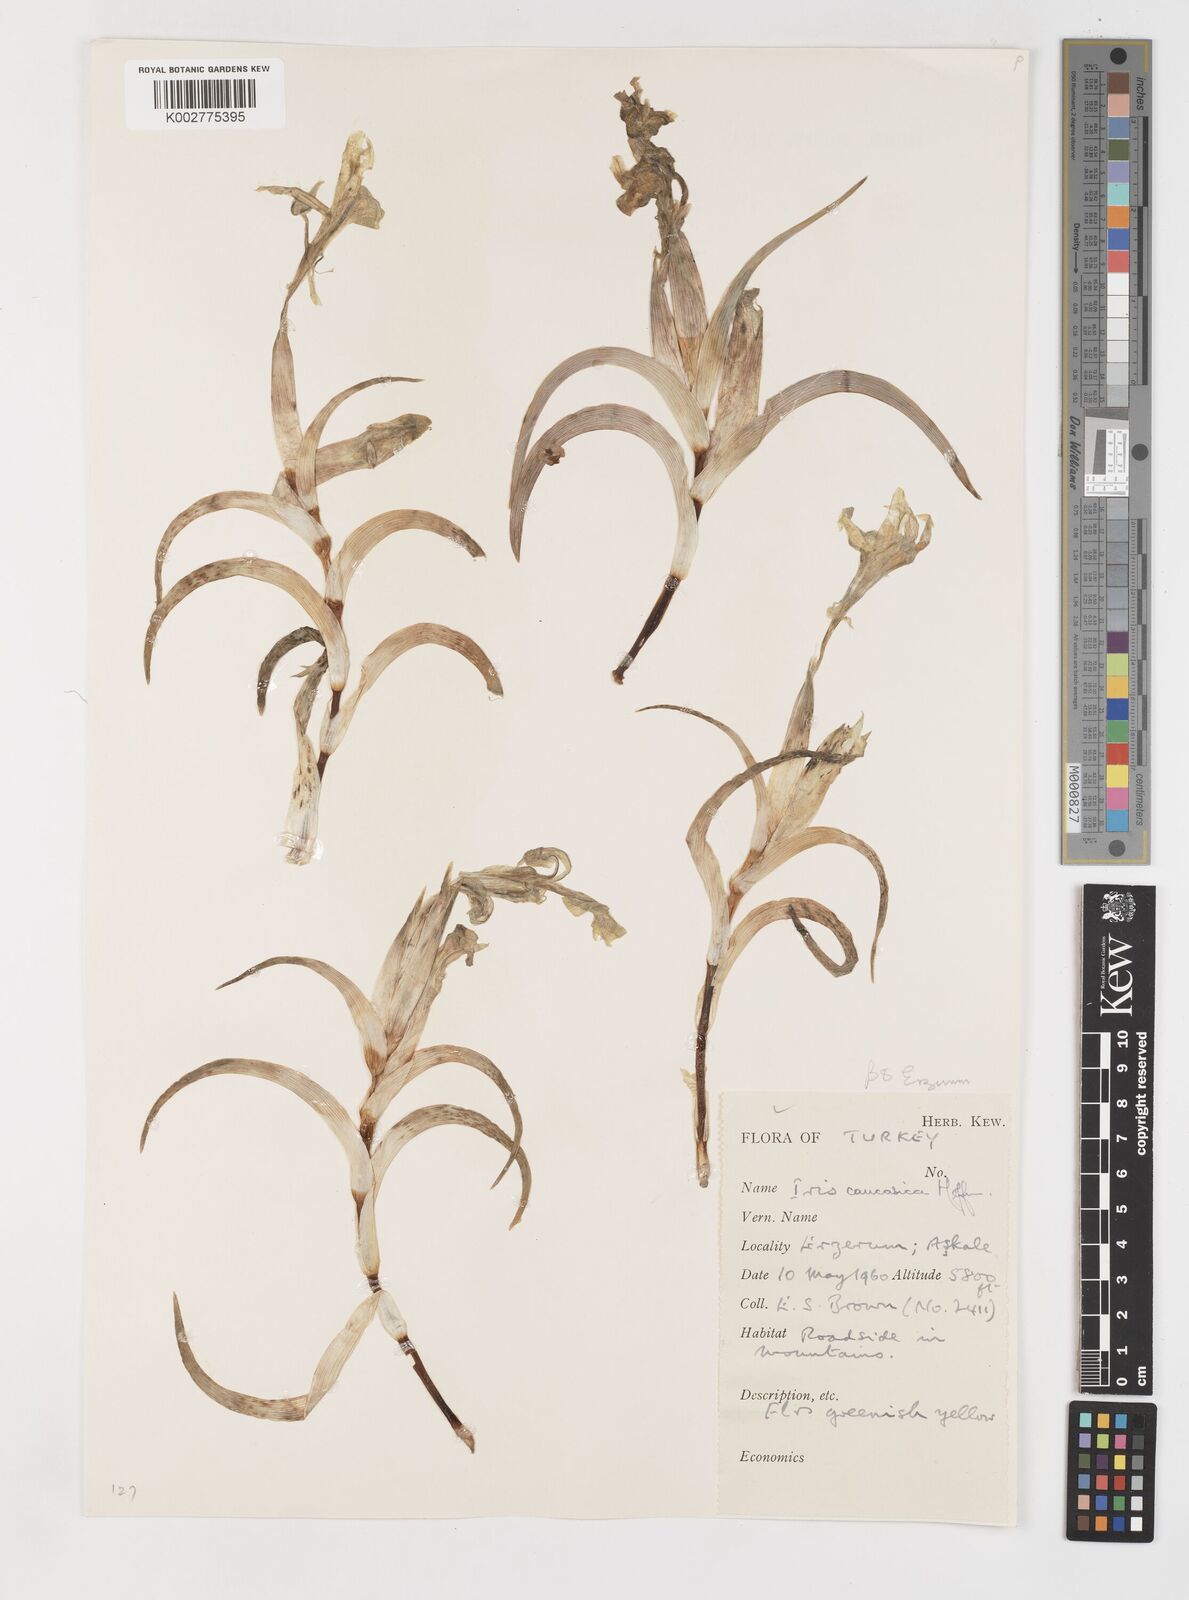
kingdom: Plantae
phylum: Tracheophyta
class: Liliopsida
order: Asparagales
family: Iridaceae
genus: Iris
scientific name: Iris caucasica
